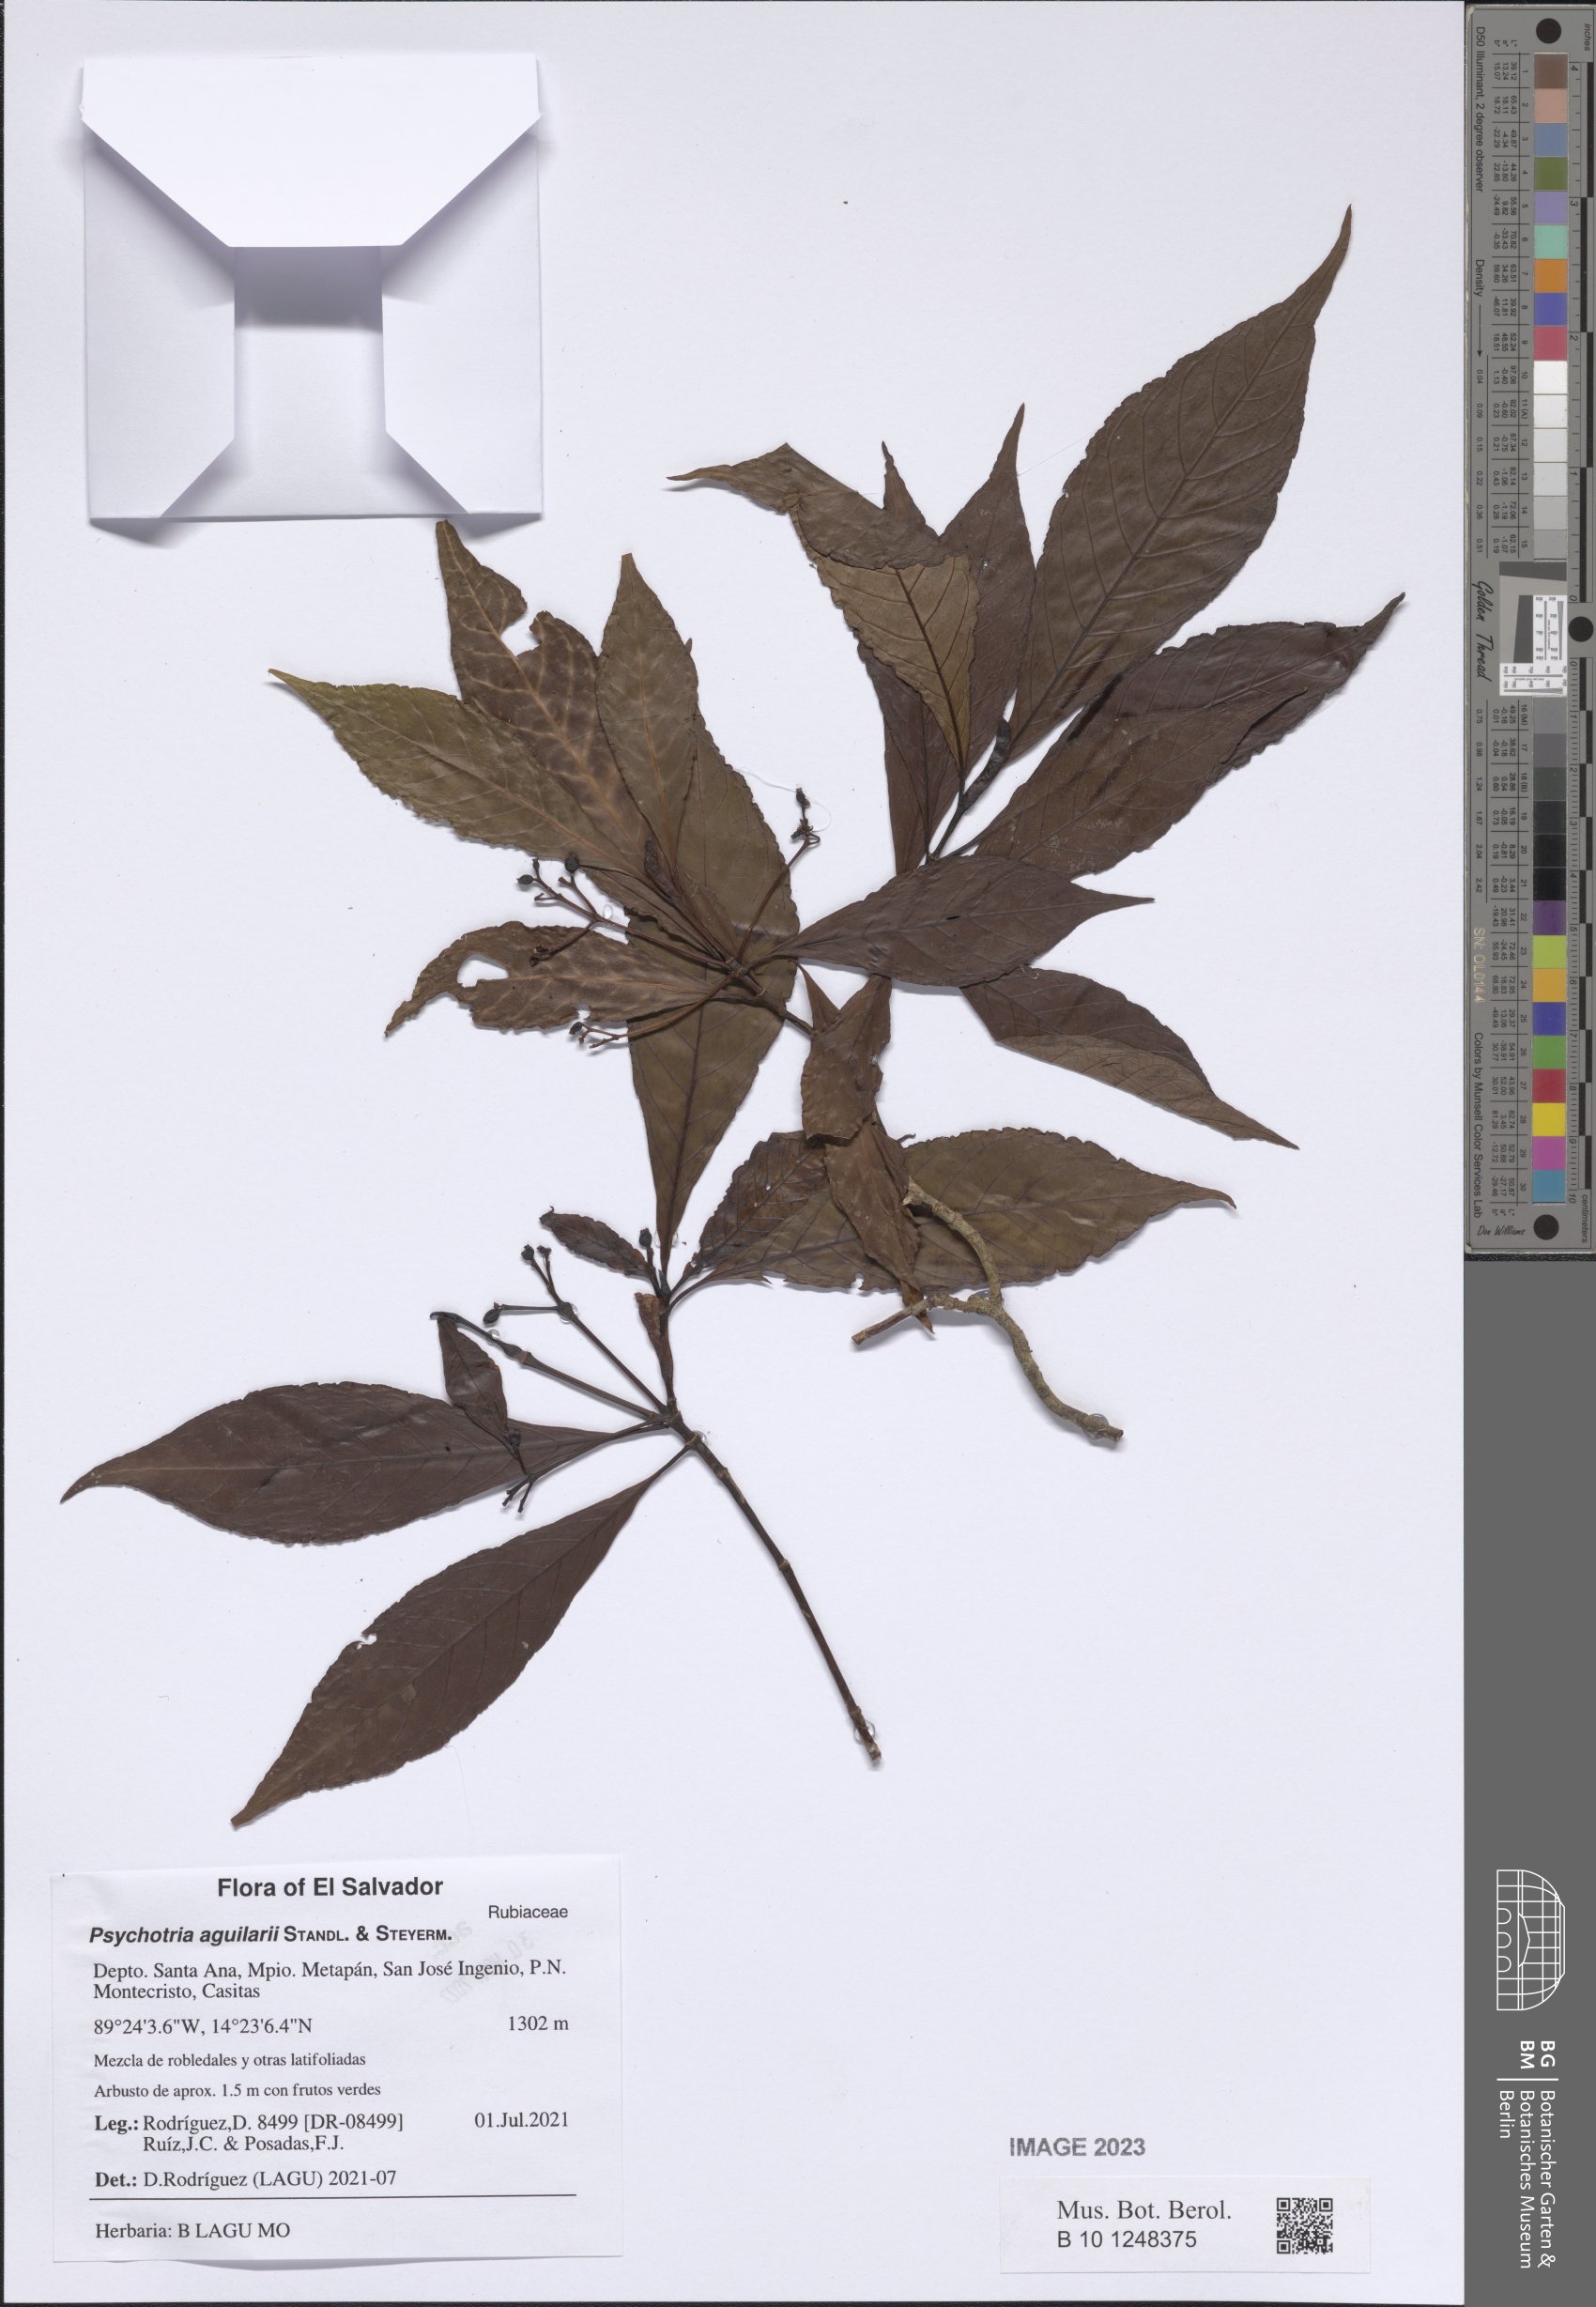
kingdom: Plantae
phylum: Tracheophyta
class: Magnoliopsida
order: Gentianales
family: Rubiaceae
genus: Psychotria
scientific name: Psychotria aguilarii
